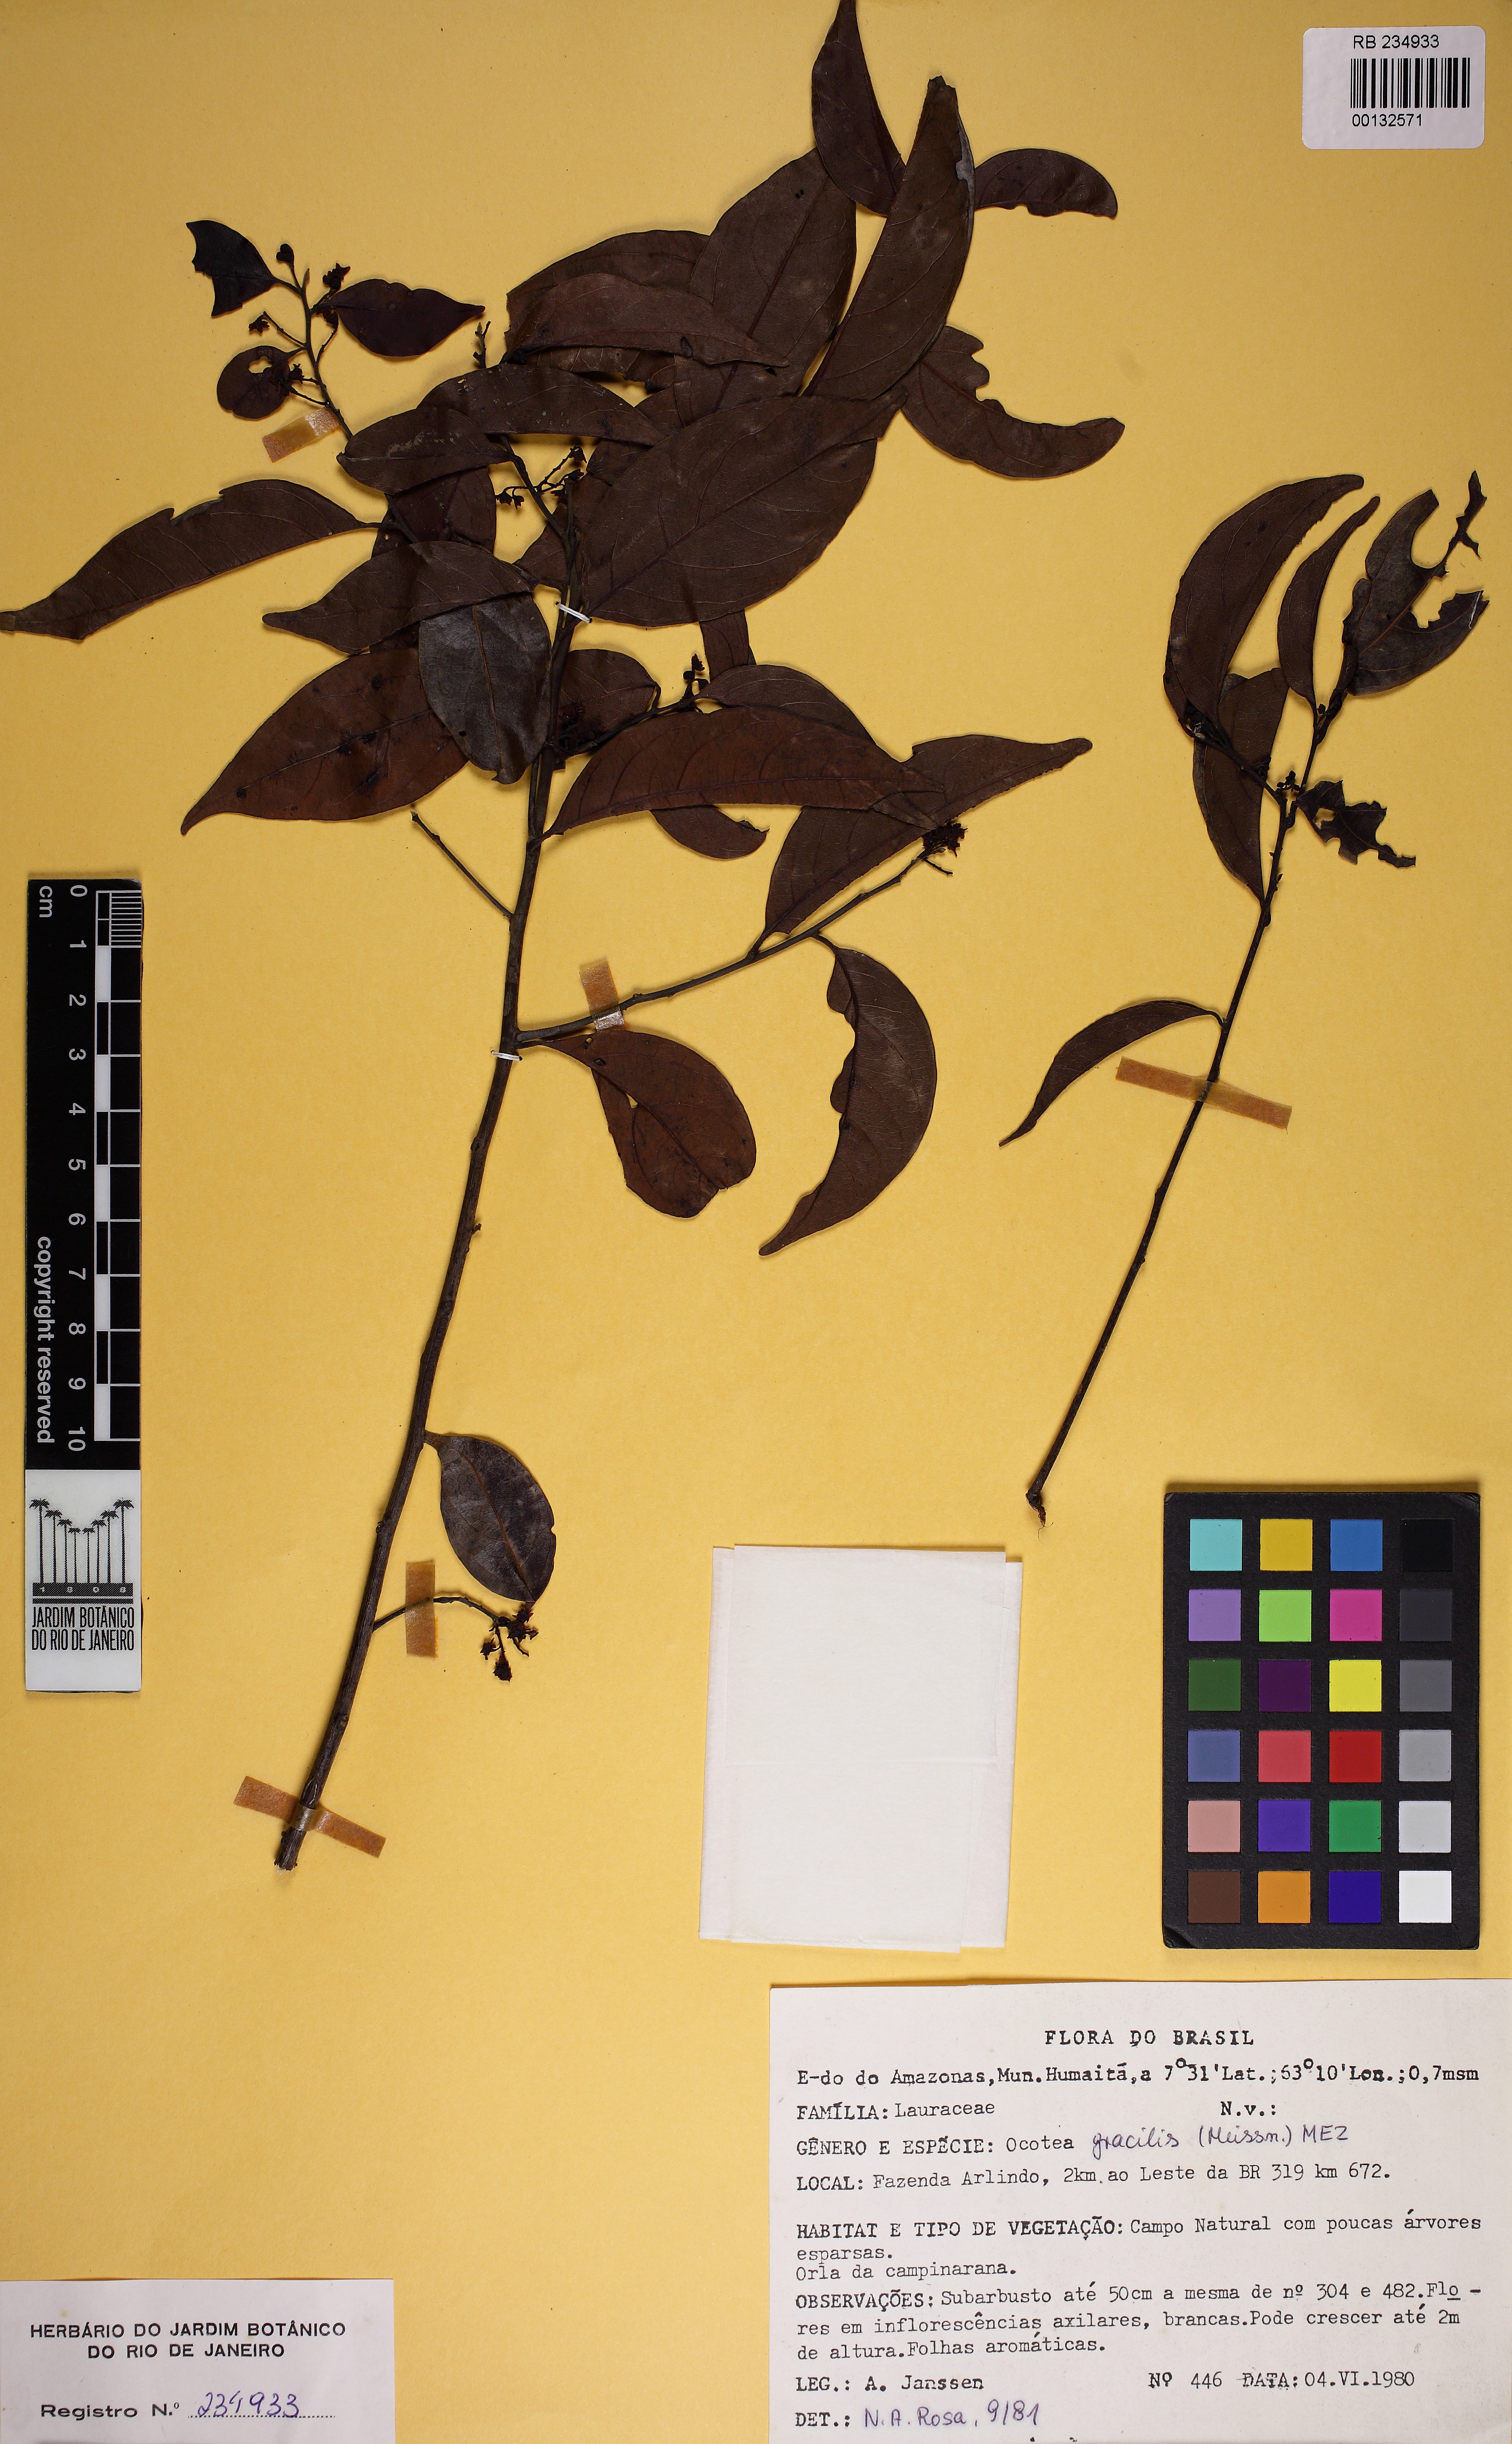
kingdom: Plantae
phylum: Tracheophyta
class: Magnoliopsida
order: Laurales
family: Lauraceae
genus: Ocotea
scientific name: Ocotea gracilis
